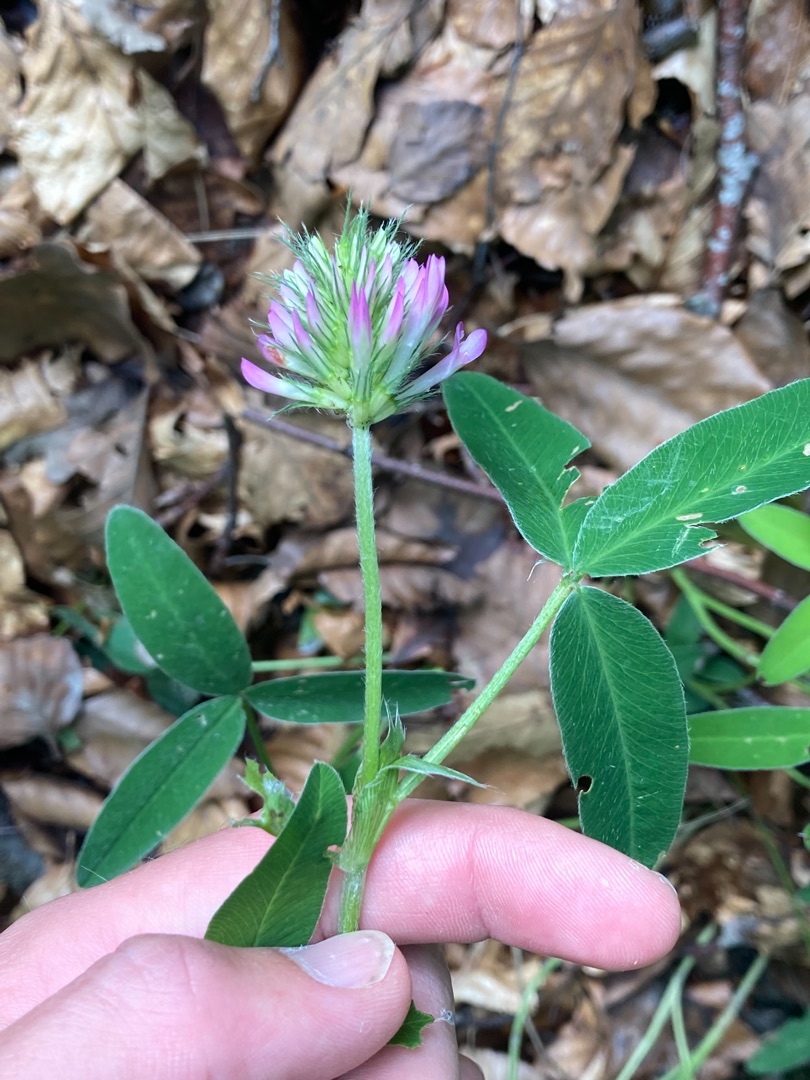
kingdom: Plantae
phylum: Tracheophyta
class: Magnoliopsida
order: Fabales
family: Fabaceae
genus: Trifolium
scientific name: Trifolium medium
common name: Bugtet kløver
